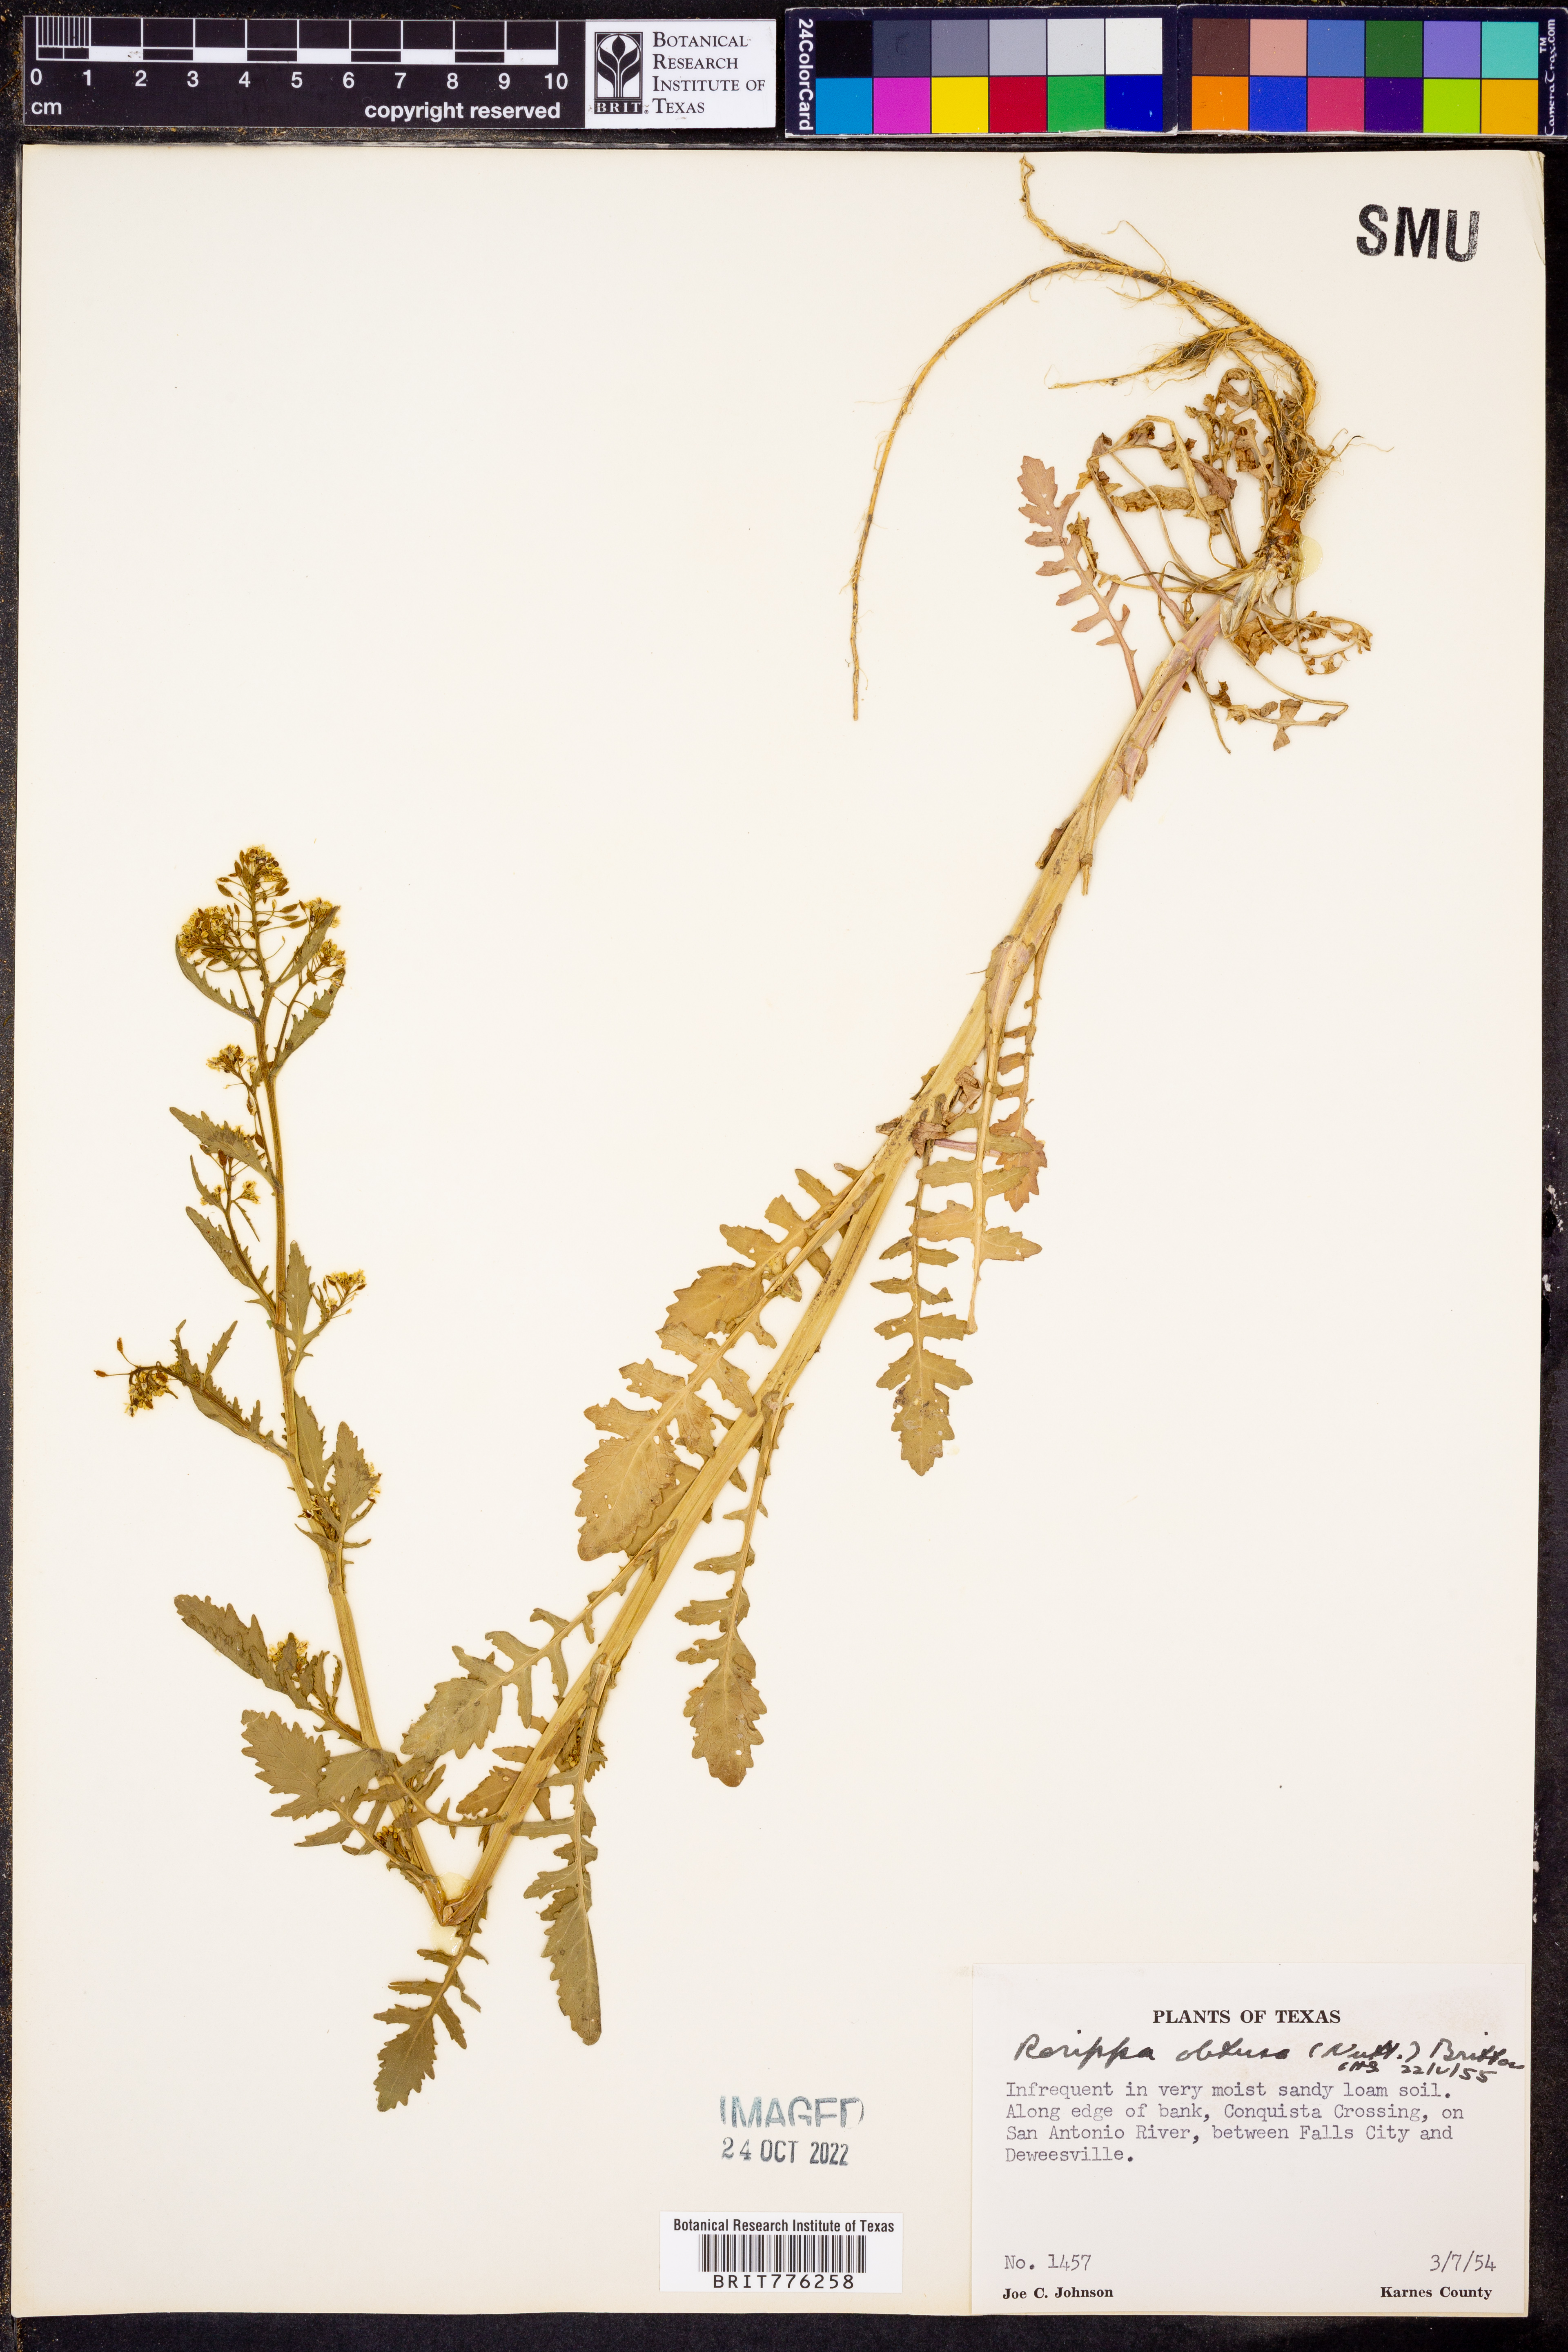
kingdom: Plantae
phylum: Tracheophyta
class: Magnoliopsida
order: Brassicales
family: Brassicaceae
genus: Rorippa
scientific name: Rorippa teres
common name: Southern marsh yellowcress
